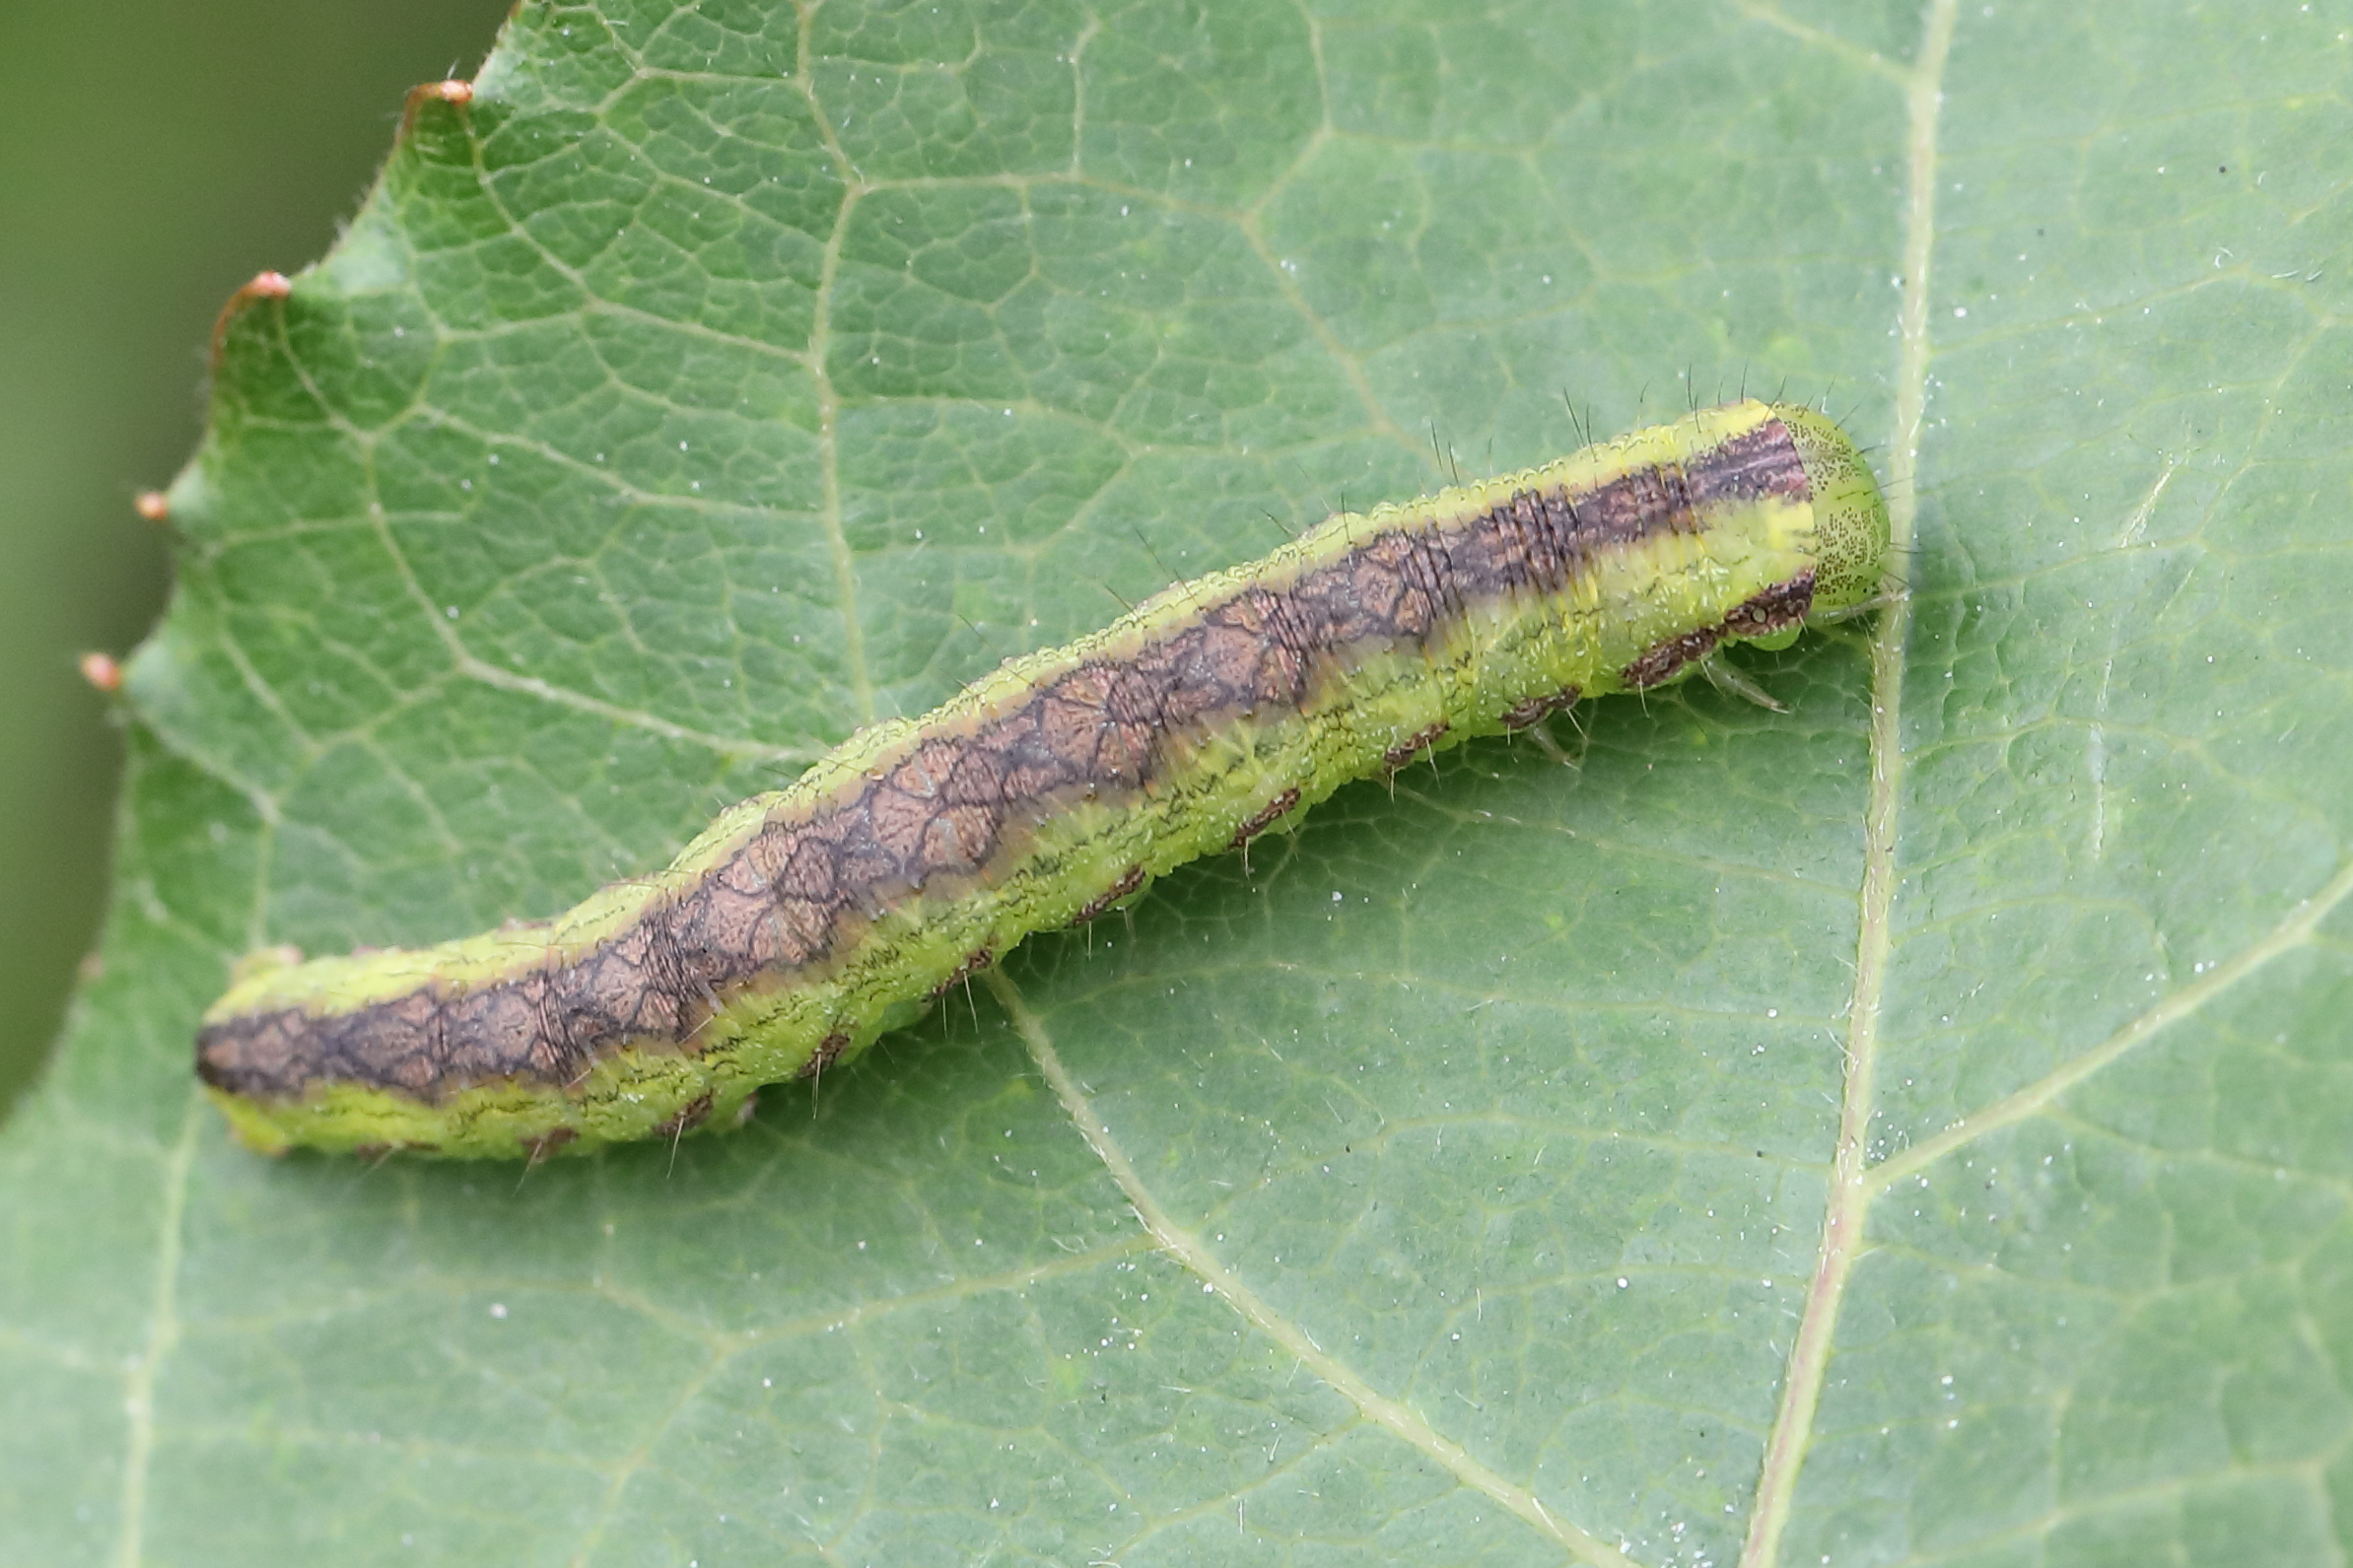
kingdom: Animalia
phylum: Arthropoda
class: Insecta
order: Lepidoptera
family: Noctuidae
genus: Cucullia
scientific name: Cucullia gnaphalii
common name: Cudweed
